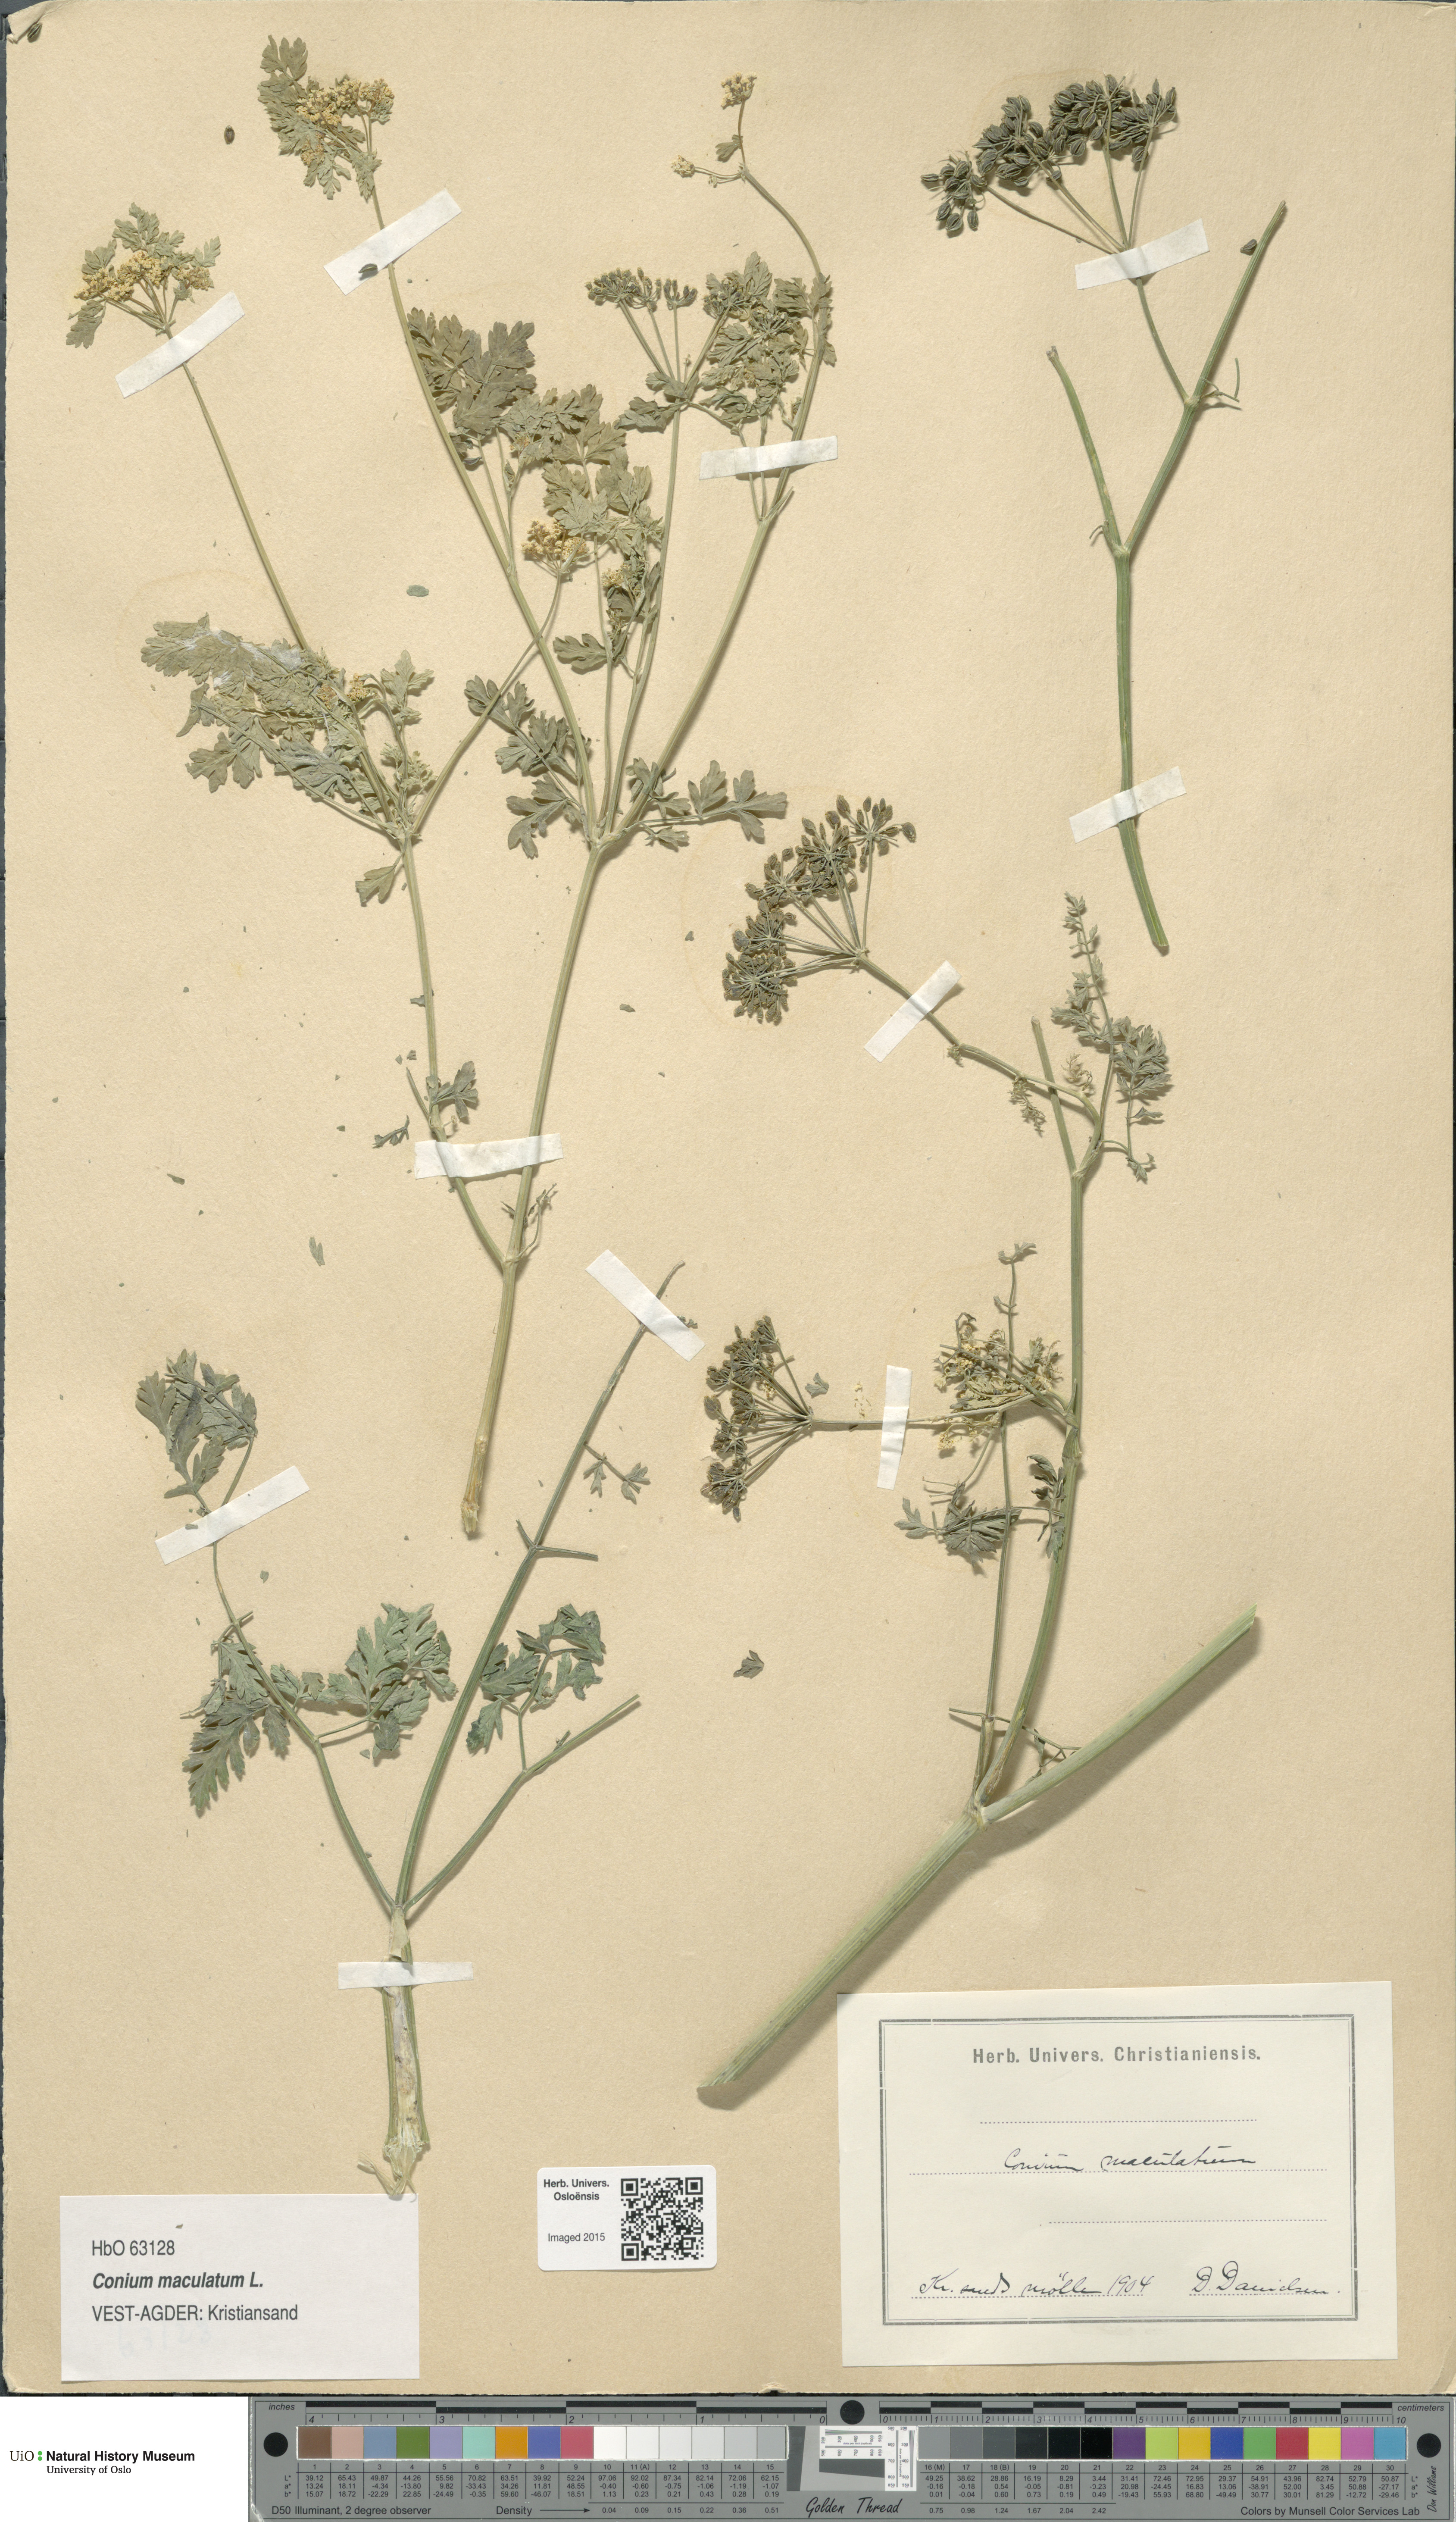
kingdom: Plantae
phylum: Tracheophyta
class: Magnoliopsida
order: Apiales
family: Apiaceae
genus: Conium
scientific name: Conium maculatum
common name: Hemlock
